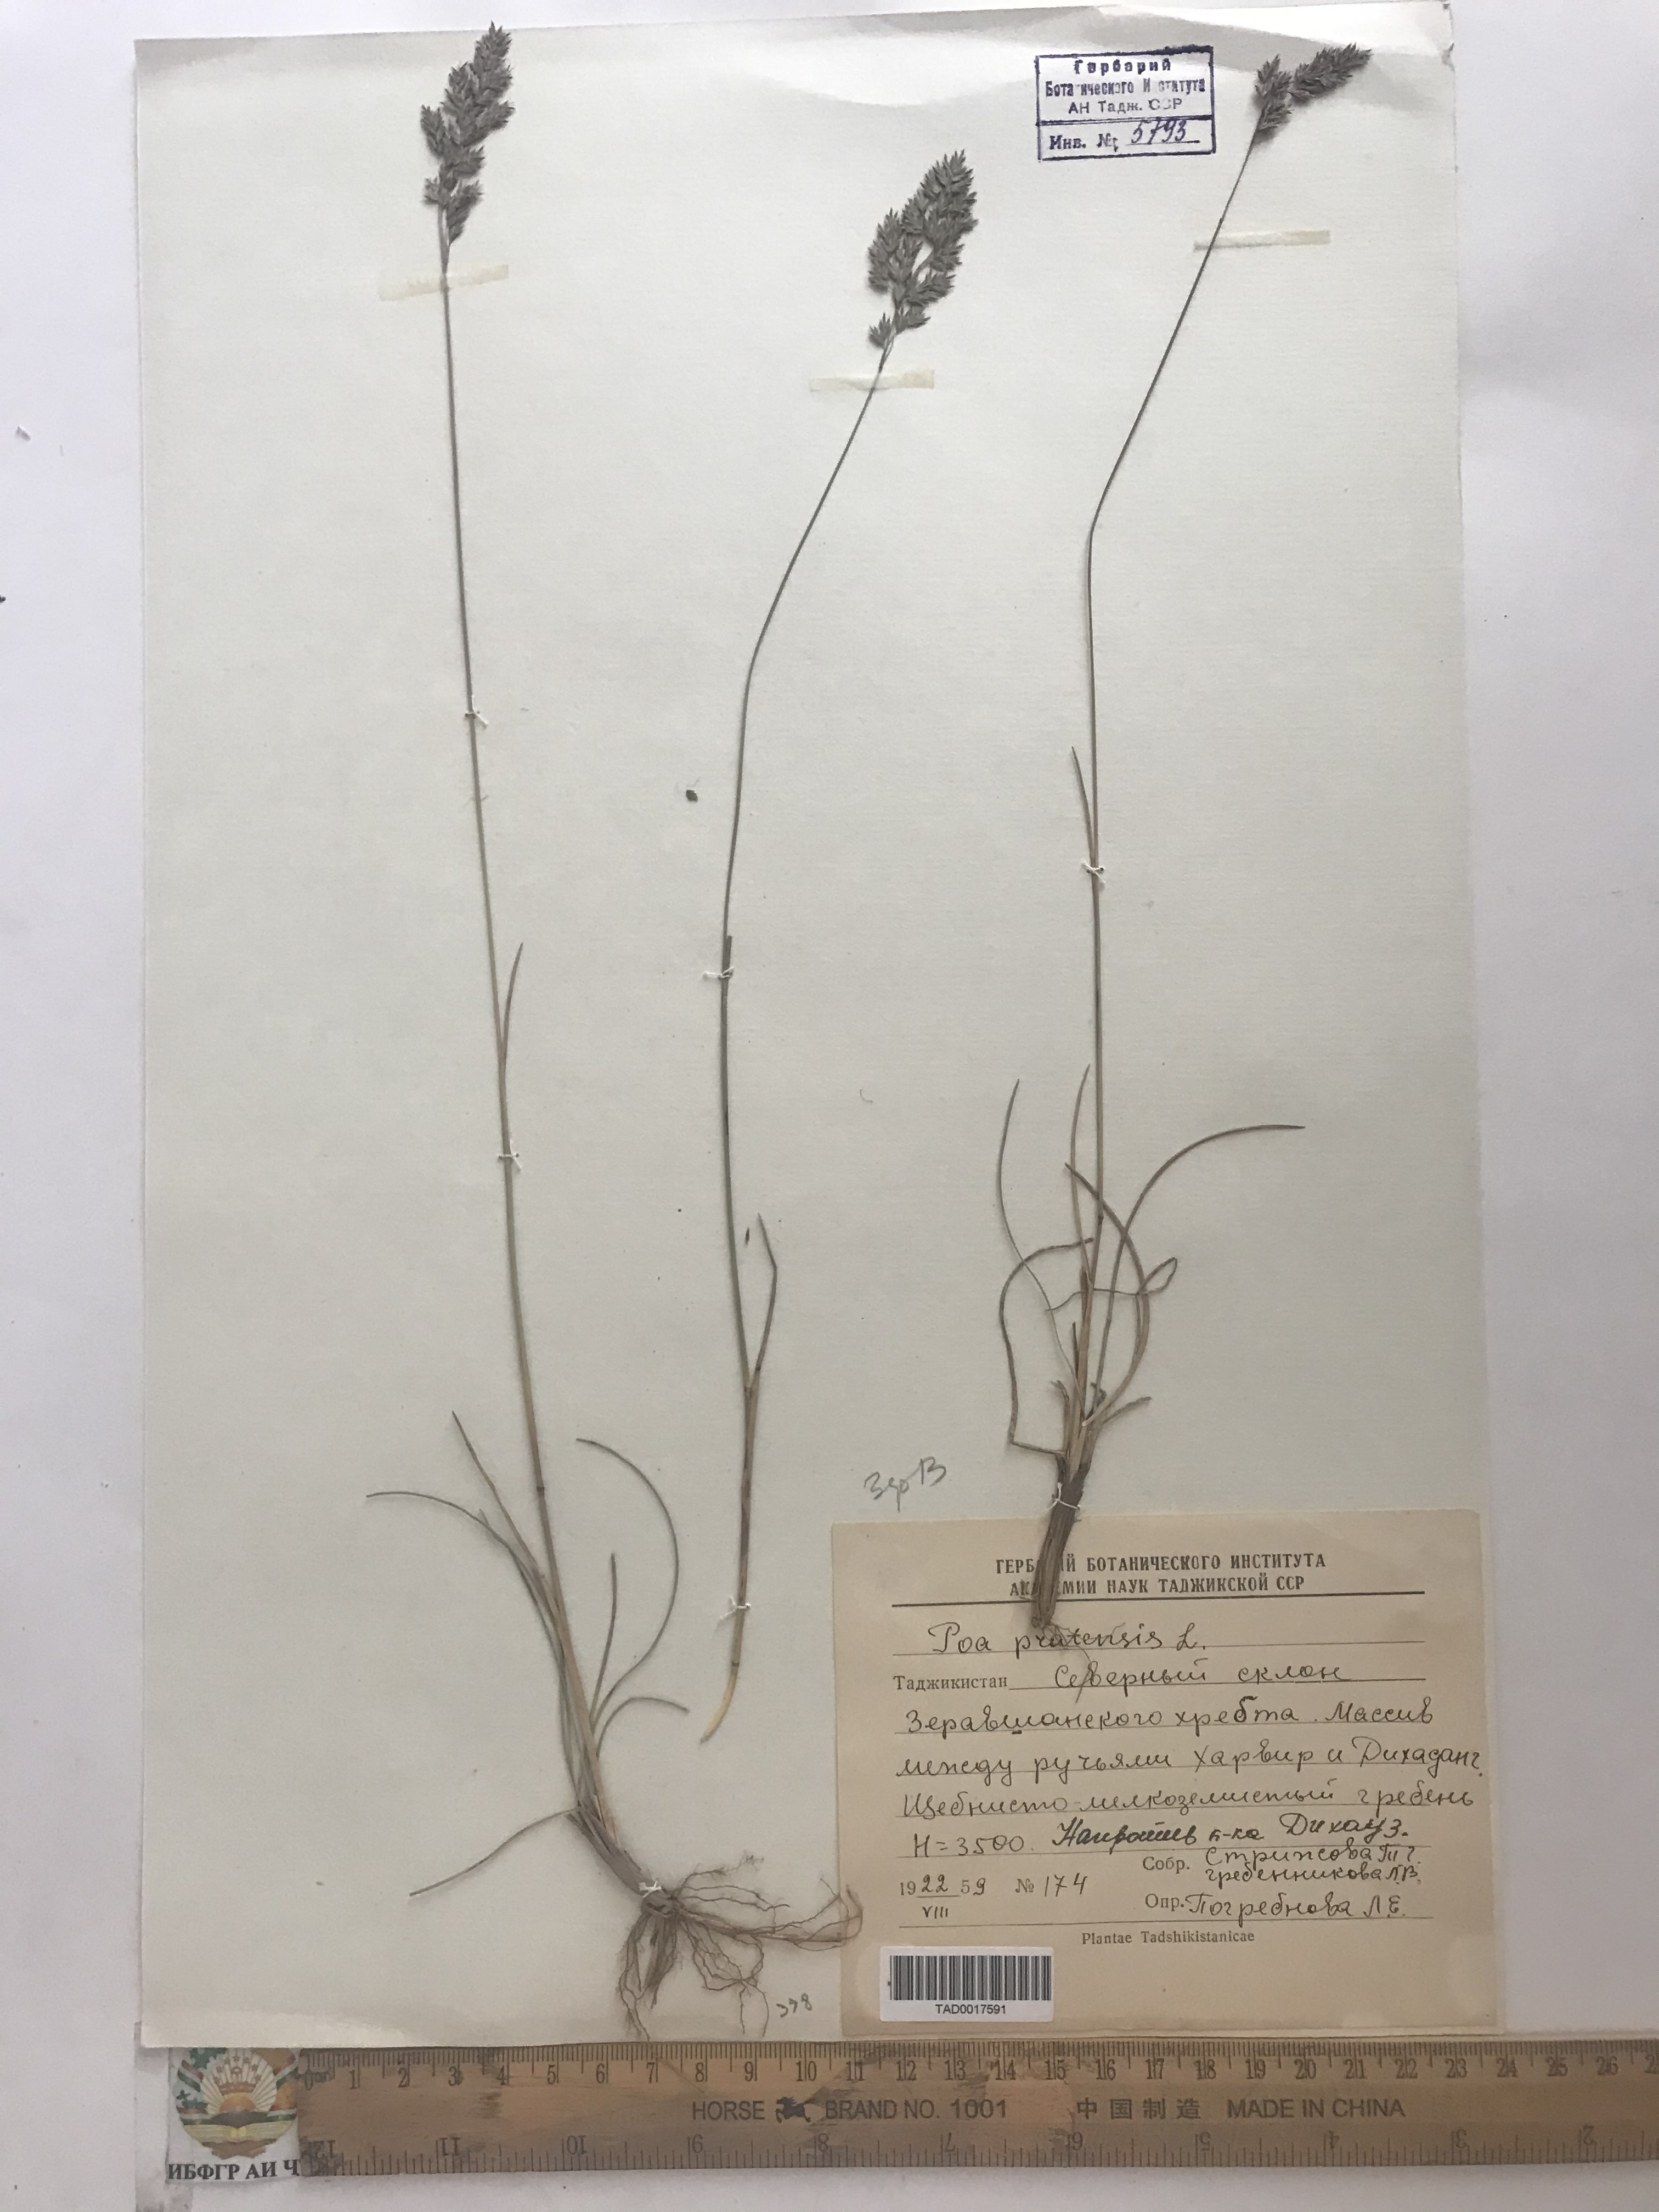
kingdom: Plantae
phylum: Tracheophyta
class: Liliopsida
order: Poales
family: Poaceae
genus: Poa
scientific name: Poa pratensis
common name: Kentucky bluegrass
